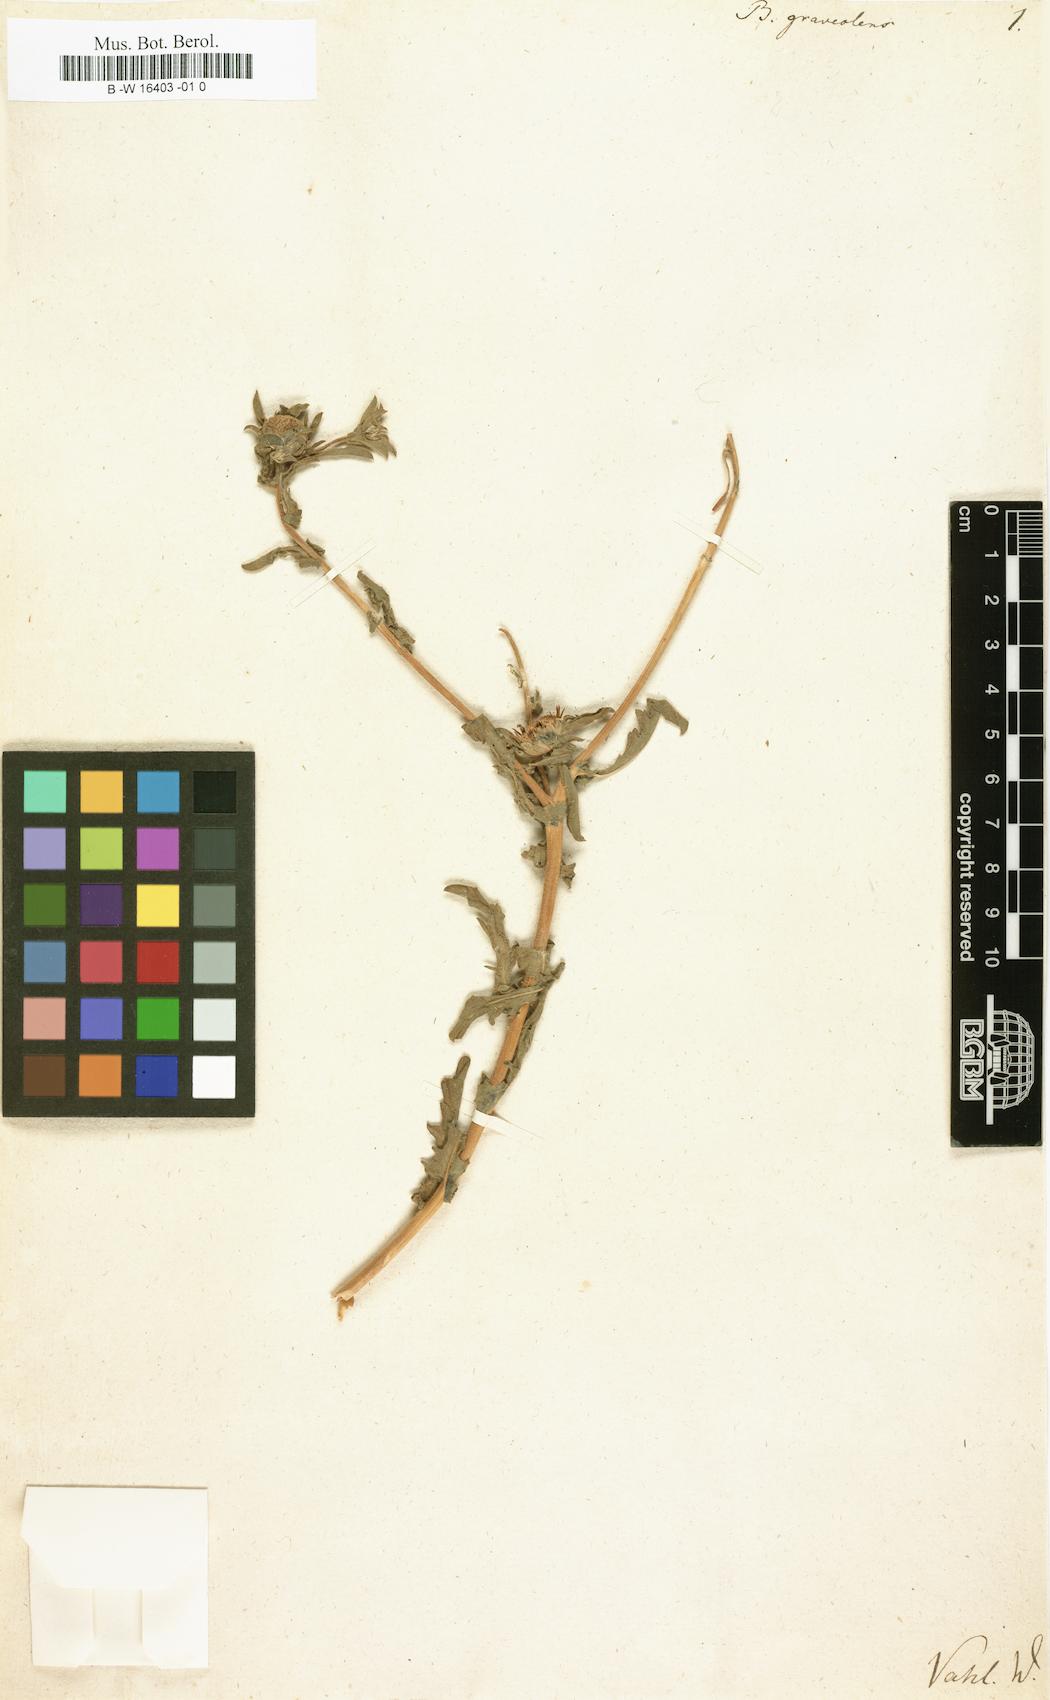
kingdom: Plantae
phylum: Tracheophyta
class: Magnoliopsida
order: Asterales
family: Asteraceae
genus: Asteriscus
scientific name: Asteriscus graveolens
